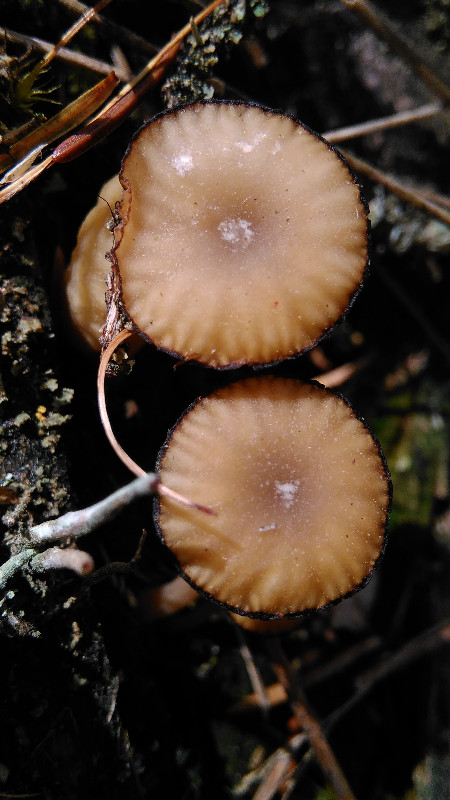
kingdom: Fungi
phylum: Basidiomycota
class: Agaricomycetes
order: Agaricales
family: Hygrophoraceae
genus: Lichenomphalia
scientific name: Lichenomphalia umbellifera
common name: tørve-lavhat
